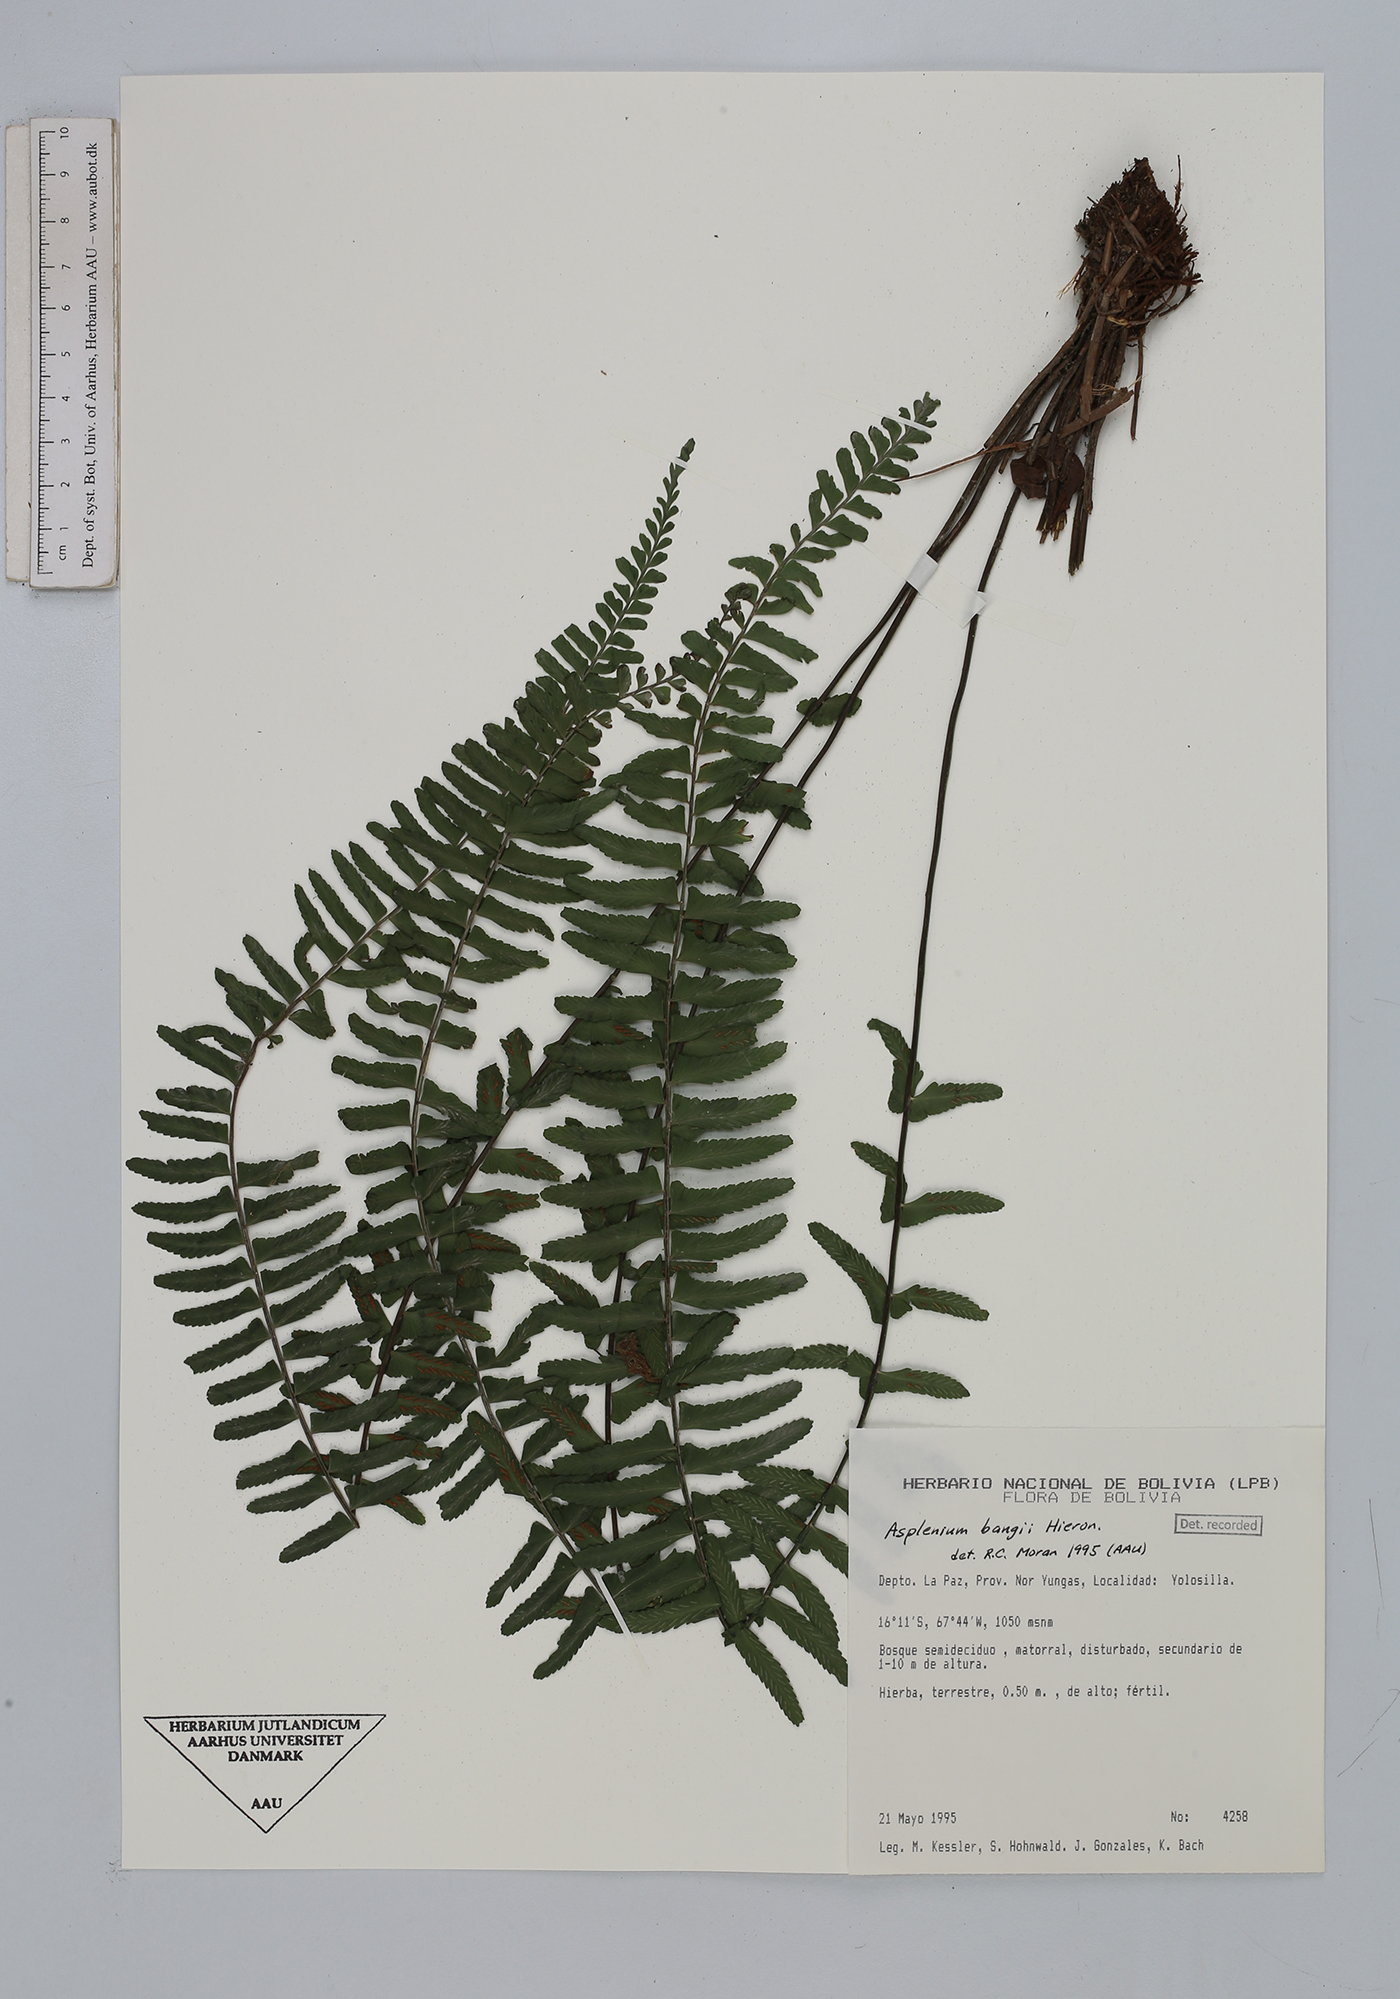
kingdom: Plantae
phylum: Tracheophyta
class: Polypodiopsida
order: Polypodiales
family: Aspleniaceae
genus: Asplenium
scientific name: Asplenium bangii
